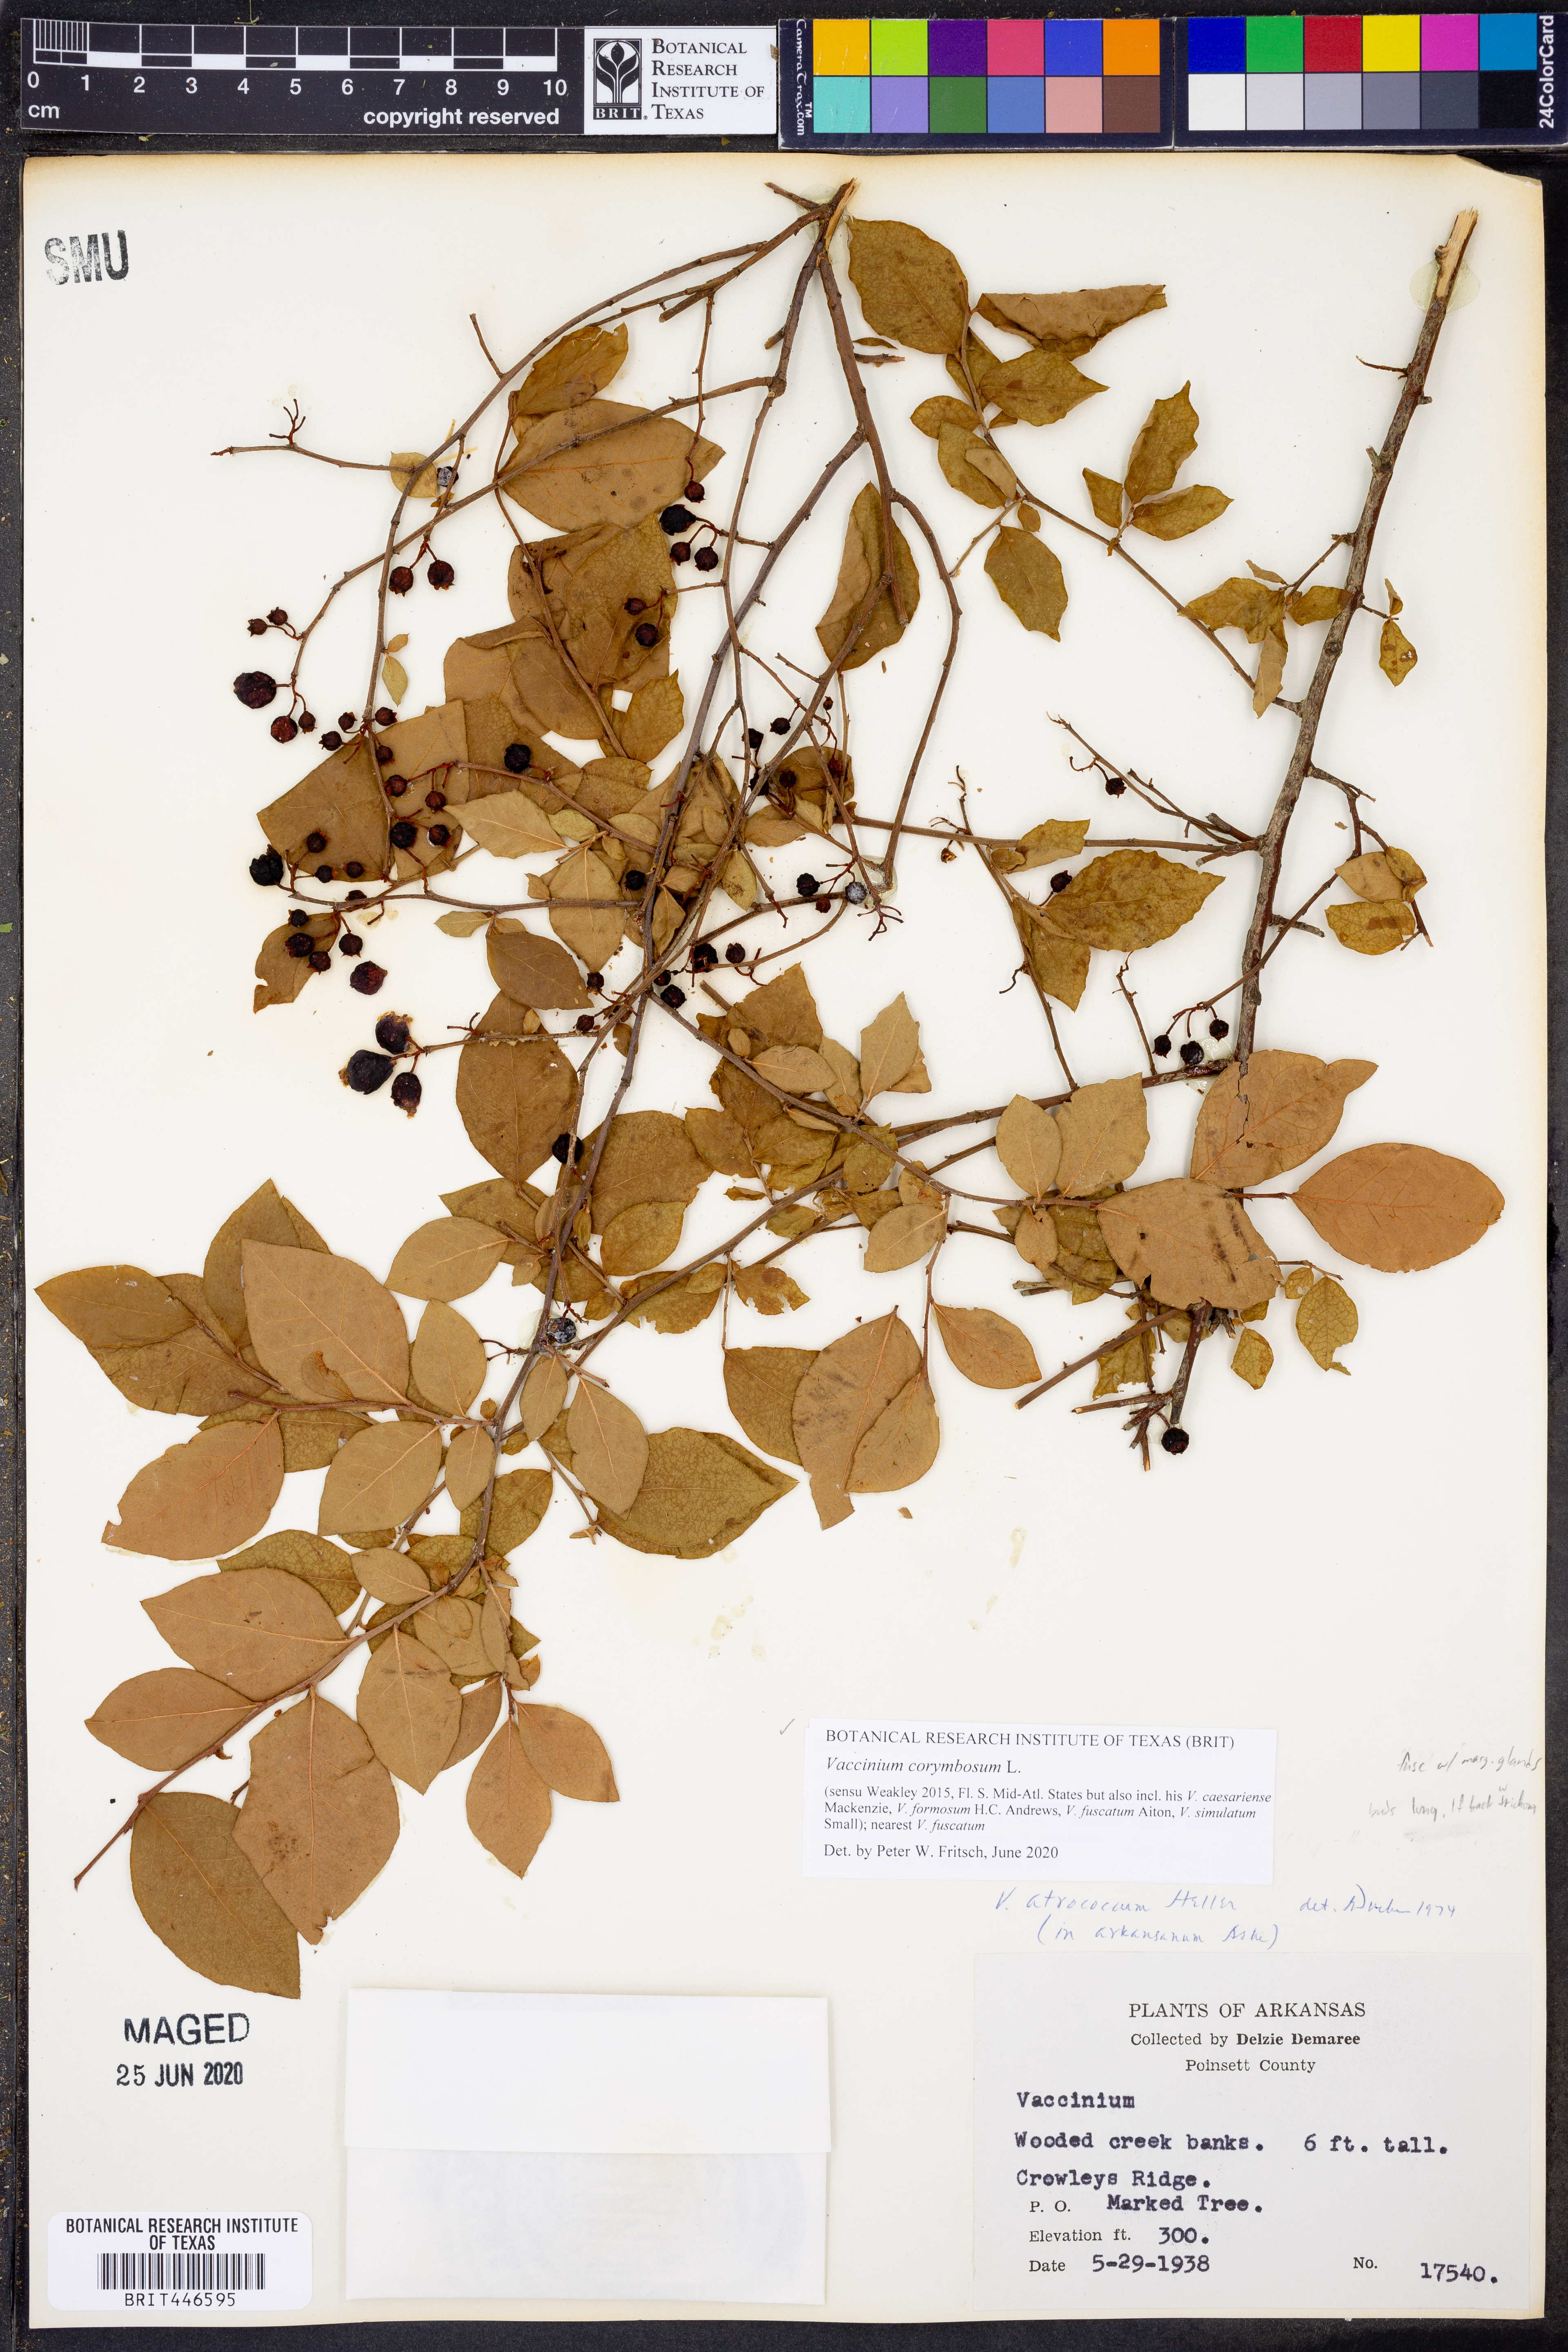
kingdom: Plantae
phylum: Tracheophyta
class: Magnoliopsida
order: Ericales
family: Ericaceae
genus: Vaccinium
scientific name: Vaccinium corymbosum
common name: Blueberry
